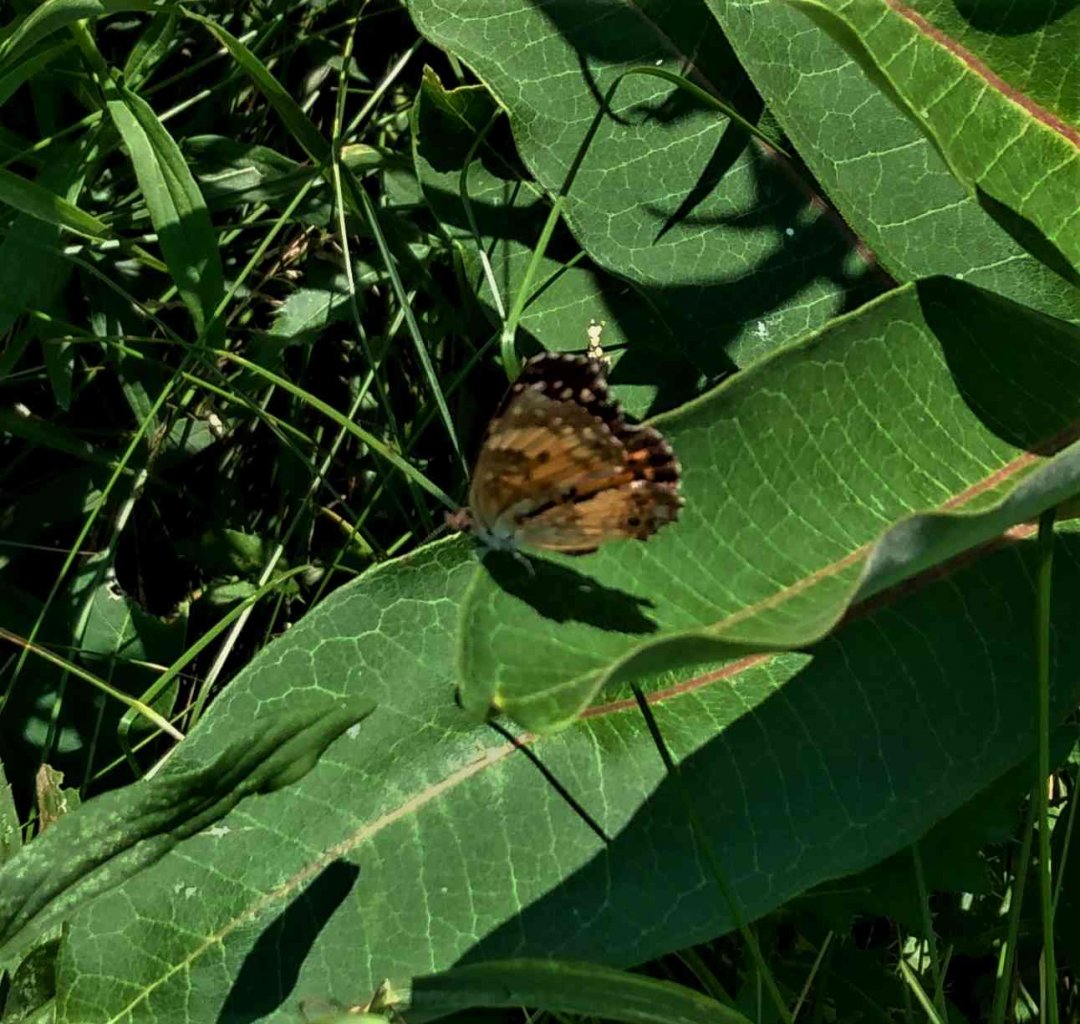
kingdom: Animalia
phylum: Arthropoda
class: Insecta
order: Lepidoptera
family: Nymphalidae
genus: Chlosyne
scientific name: Chlosyne nycteis
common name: Silvery Checkerspot
